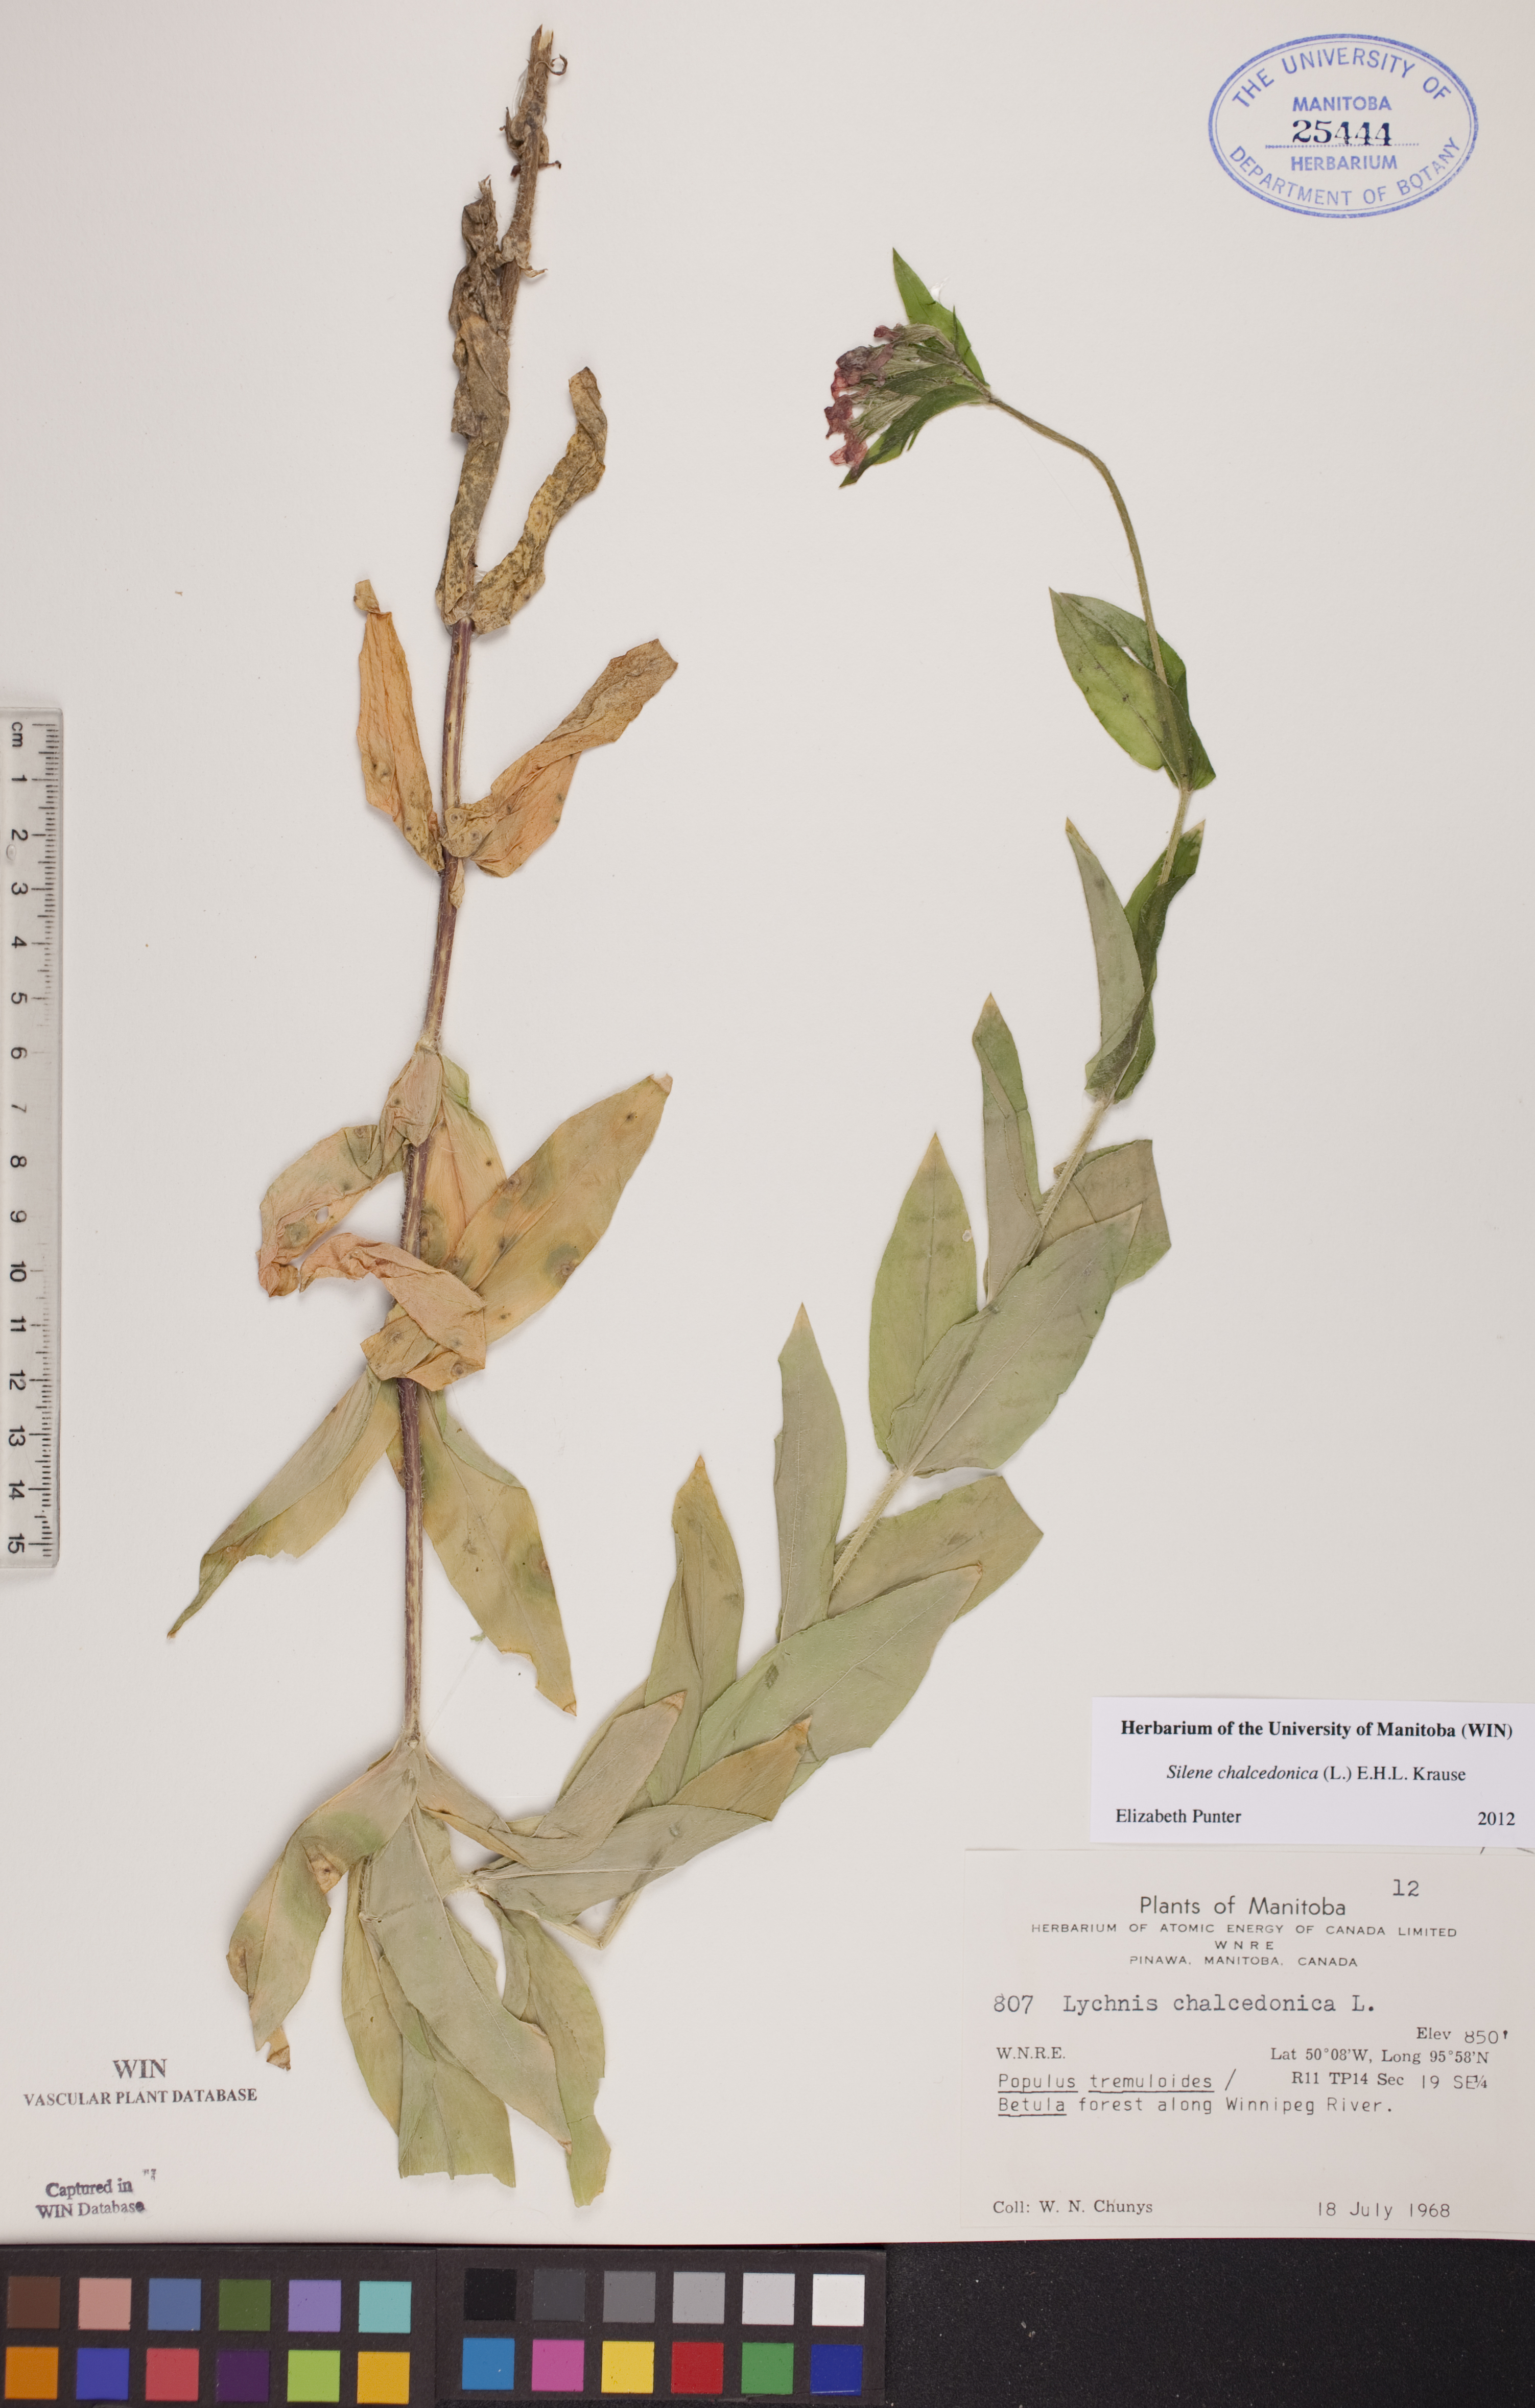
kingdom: Plantae
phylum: Tracheophyta
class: Magnoliopsida
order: Caryophyllales
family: Caryophyllaceae
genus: Silene
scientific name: Silene chalcedonica
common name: Maltese-cross
